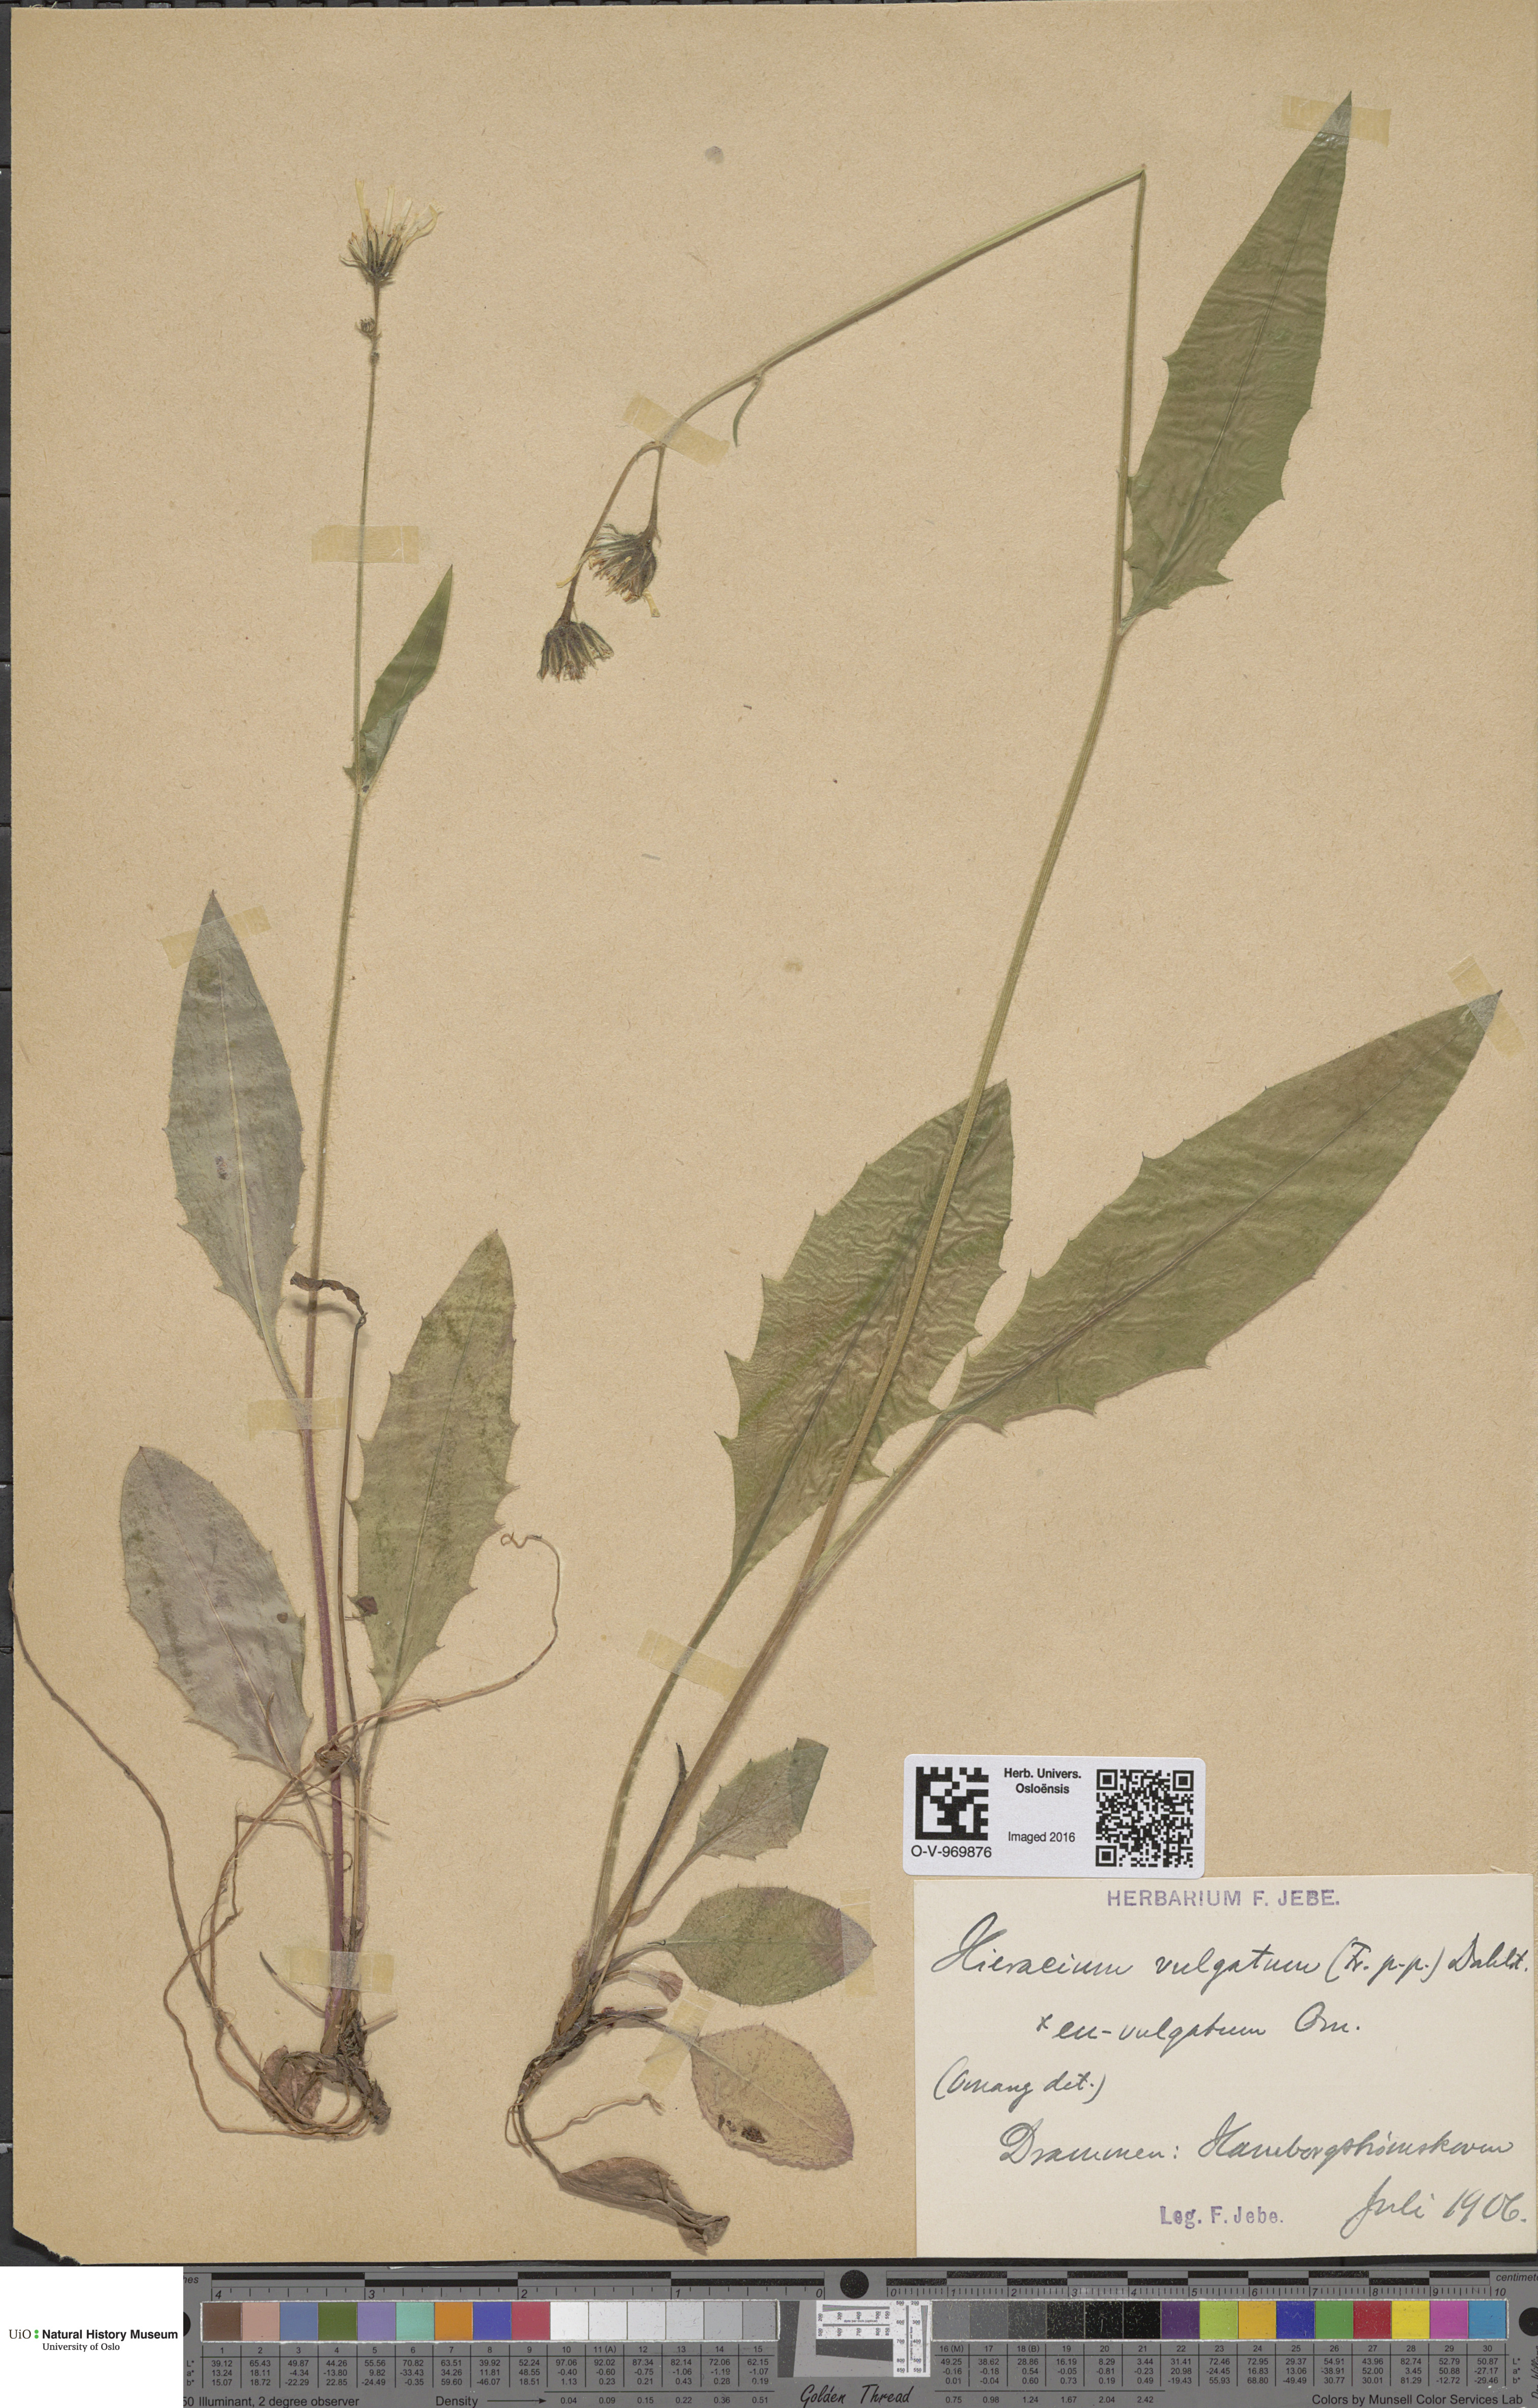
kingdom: Plantae
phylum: Tracheophyta
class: Magnoliopsida
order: Asterales
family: Asteraceae
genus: Hieracium
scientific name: Hieracium vulgatum
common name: Common hawkweed
